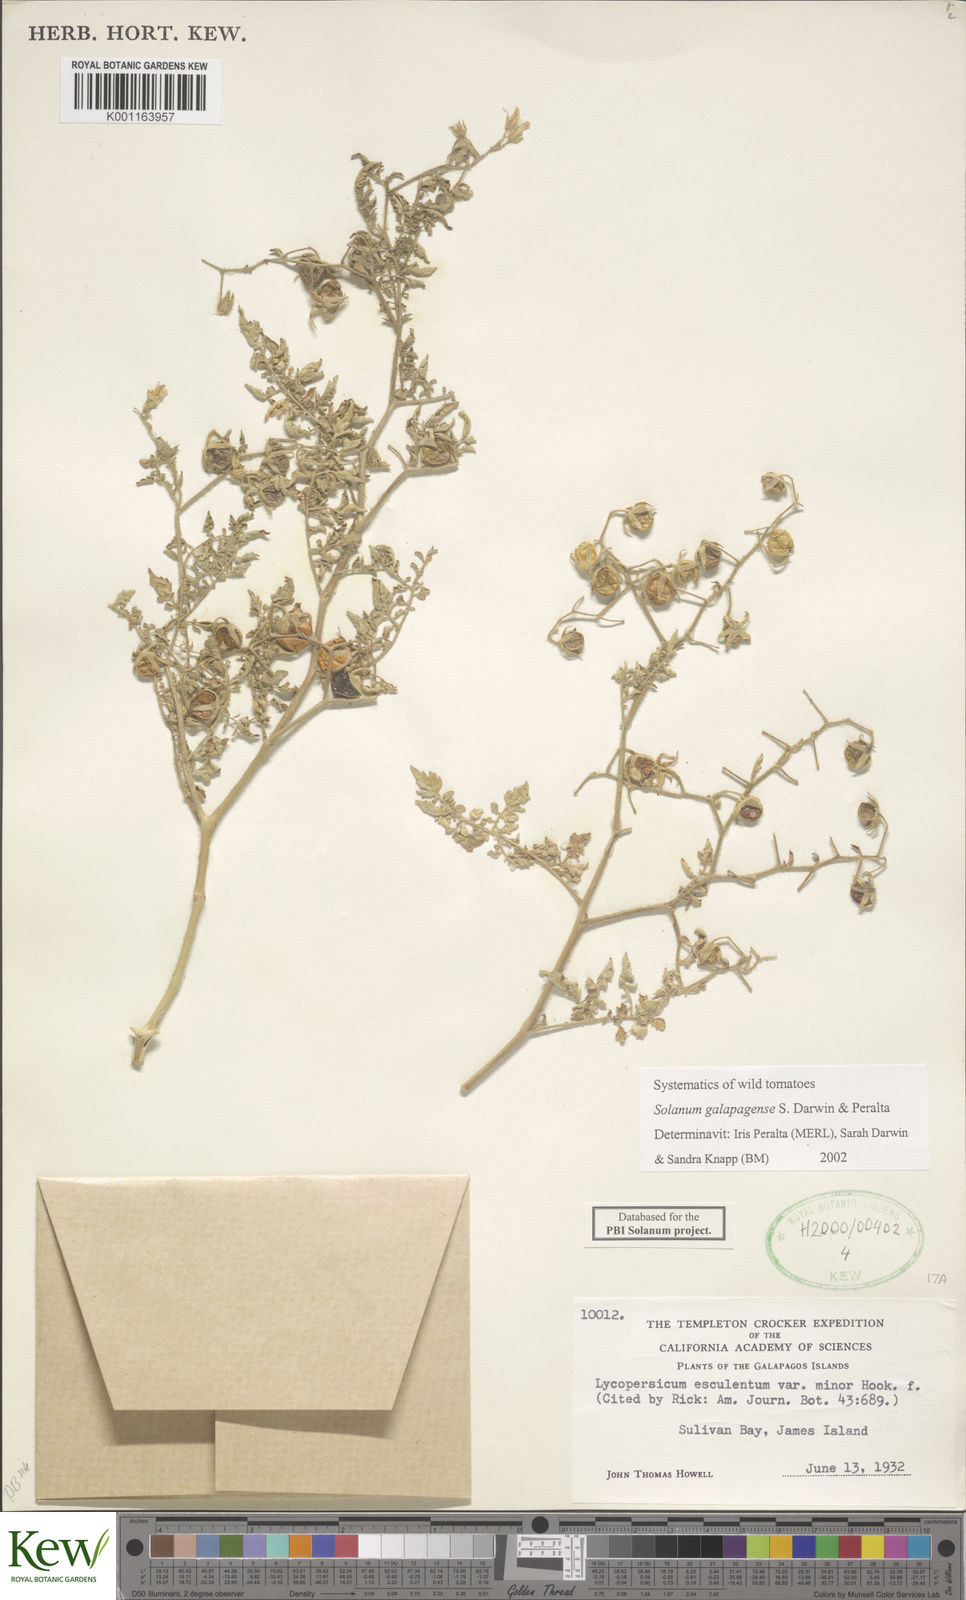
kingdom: Plantae
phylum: Tracheophyta
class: Magnoliopsida
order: Solanales
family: Solanaceae
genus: Solanum
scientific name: Solanum galapagense
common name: Galápagos tomato
